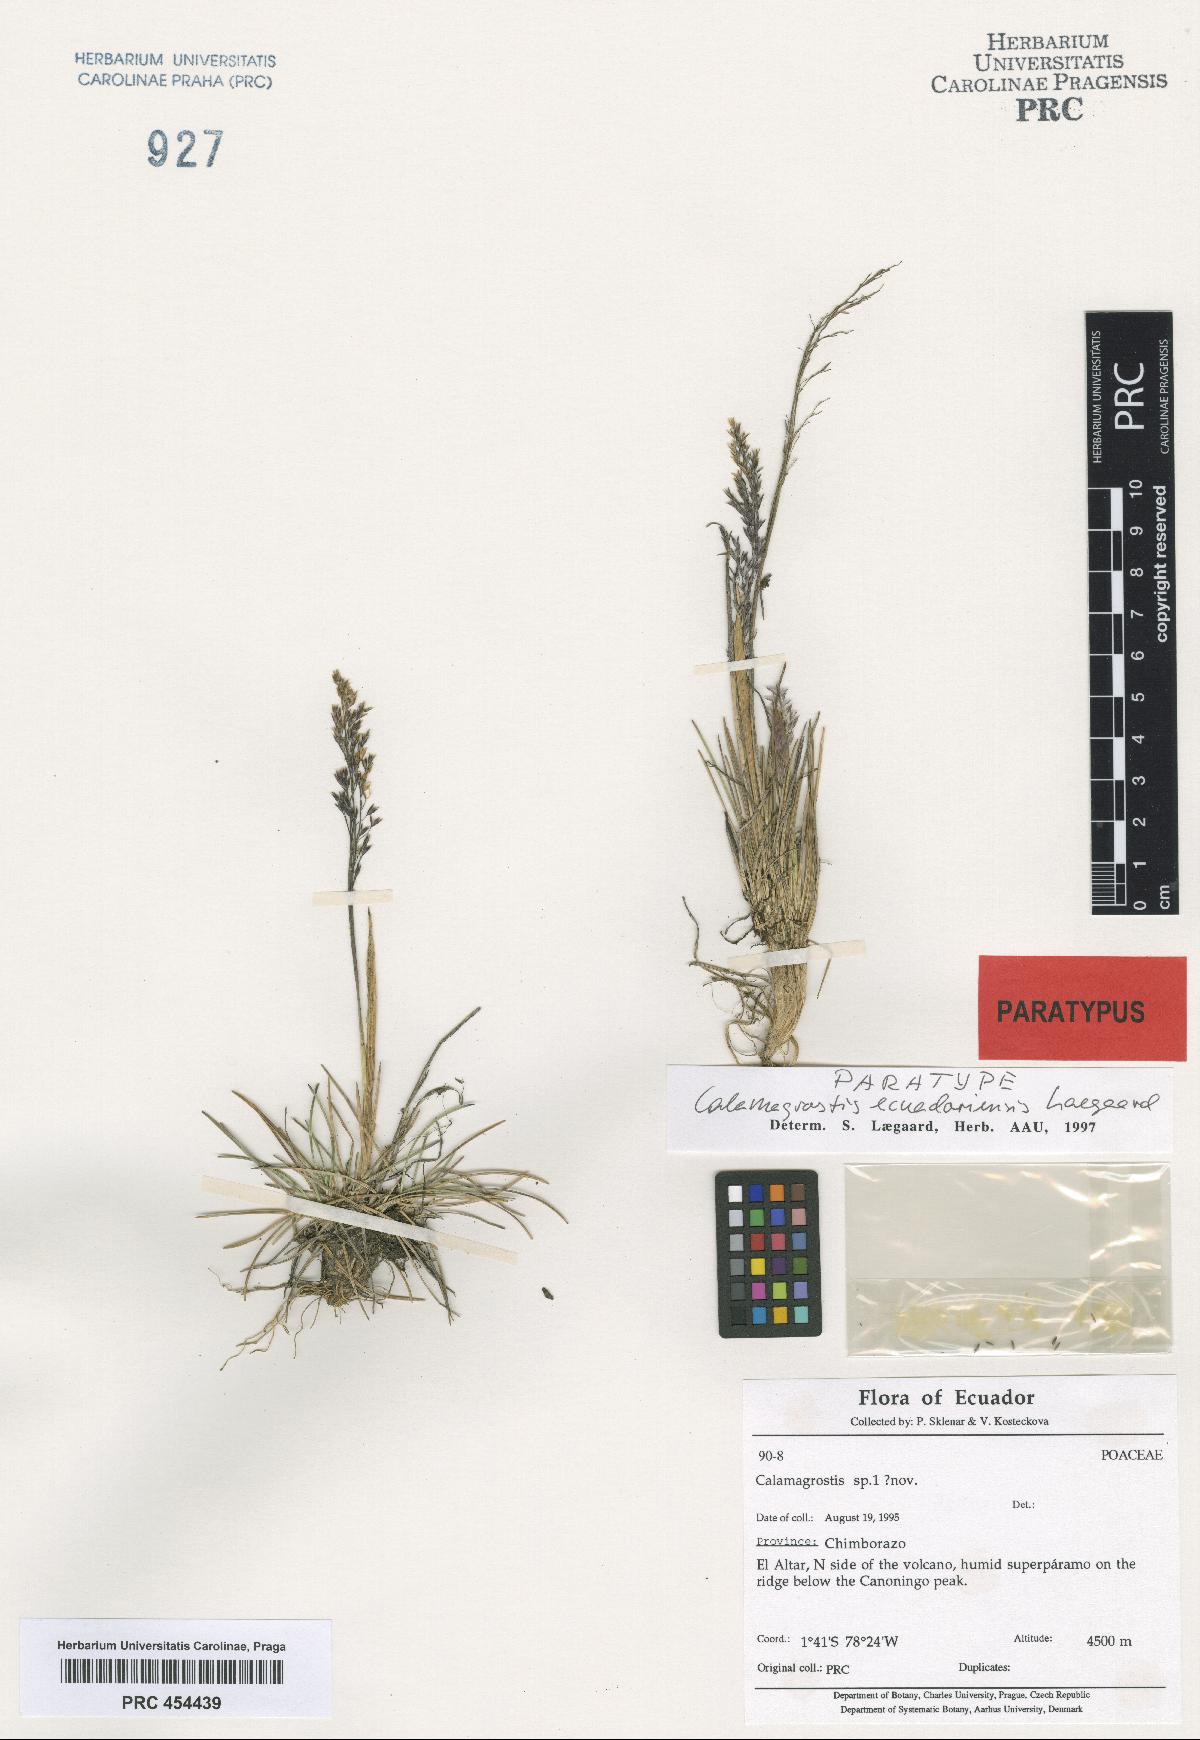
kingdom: Plantae
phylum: Tracheophyta
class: Liliopsida
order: Poales
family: Poaceae
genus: Laegaardia
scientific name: Laegaardia ecuadoriense
